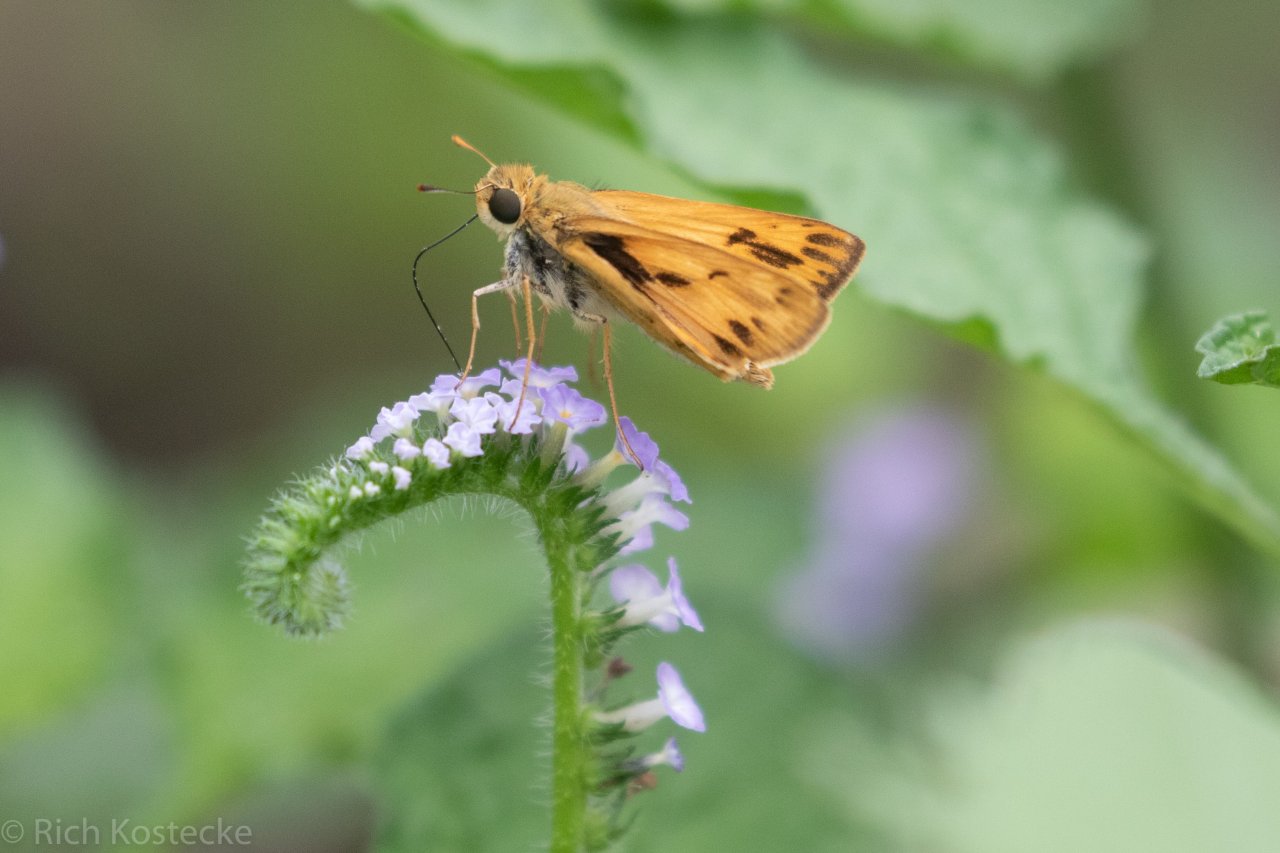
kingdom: Animalia
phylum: Arthropoda
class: Insecta
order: Lepidoptera
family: Hesperiidae
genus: Hylephila
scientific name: Hylephila phyleus
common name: Fiery Skipper
